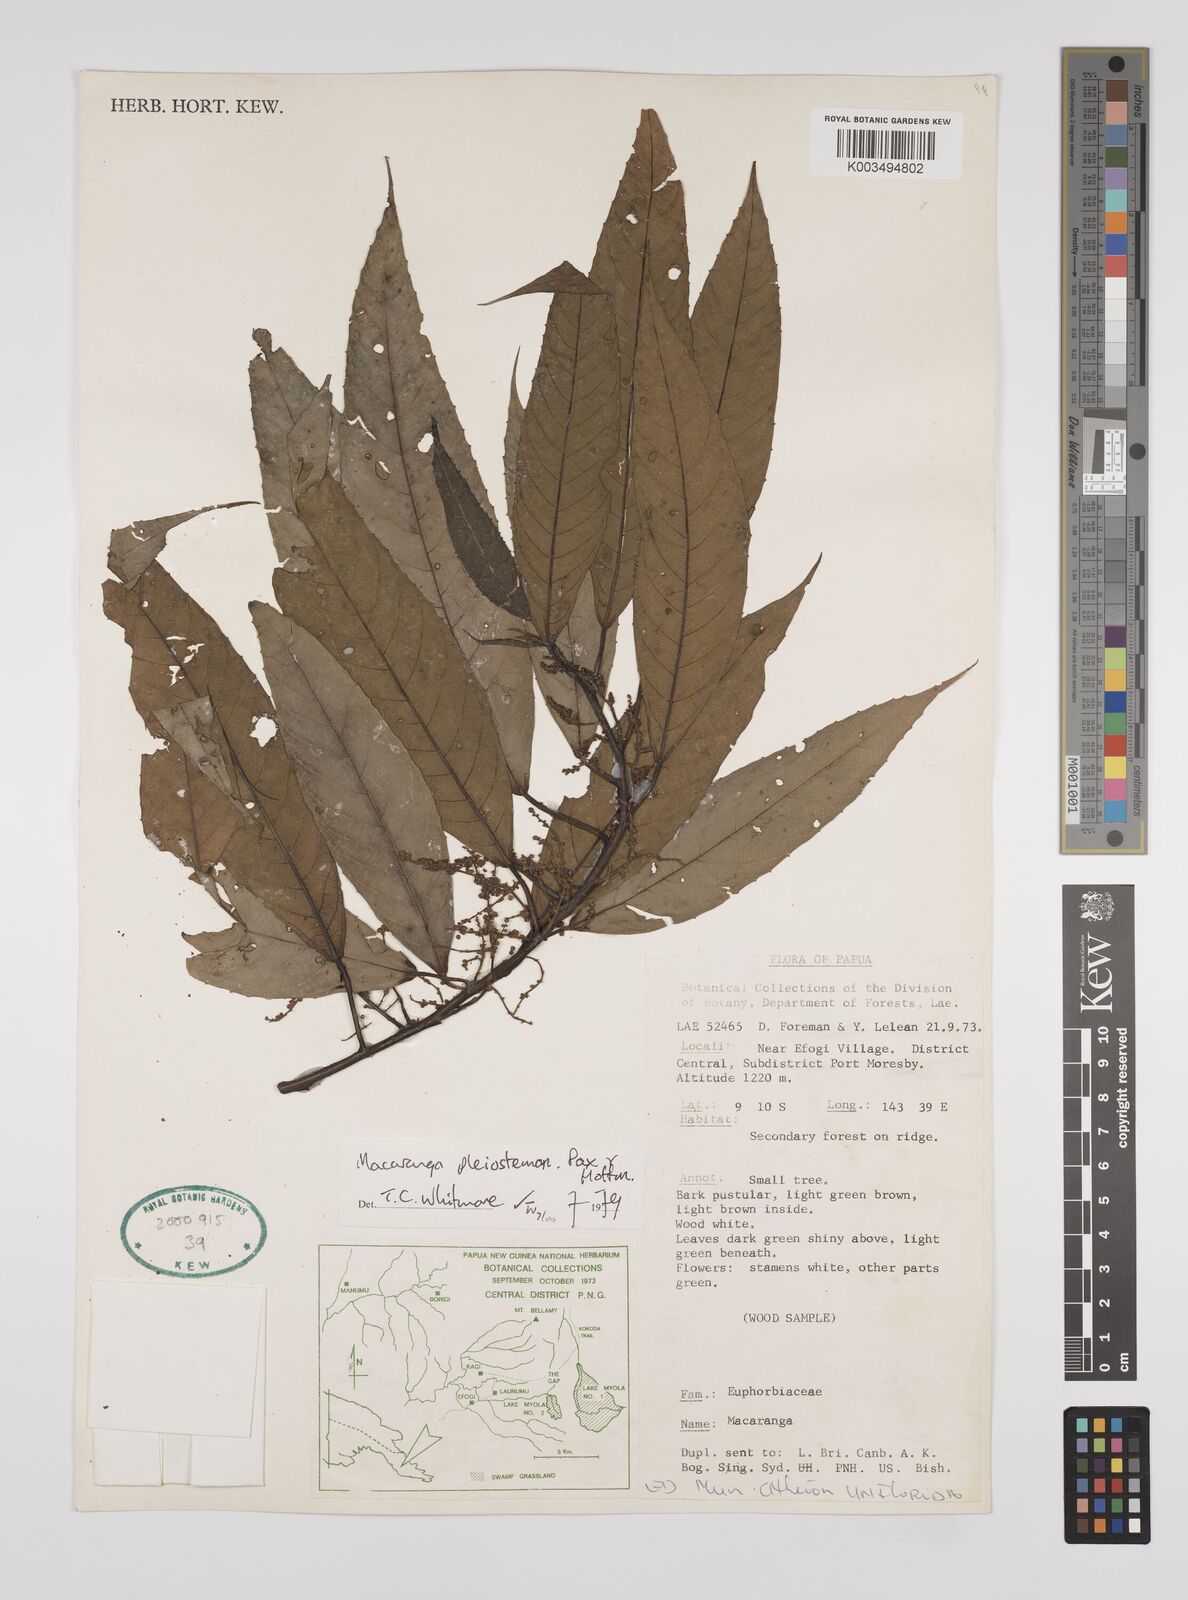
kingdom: Plantae
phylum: Tracheophyta
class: Magnoliopsida
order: Malpighiales
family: Euphorbiaceae
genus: Macaranga
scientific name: Macaranga pleiostemon
